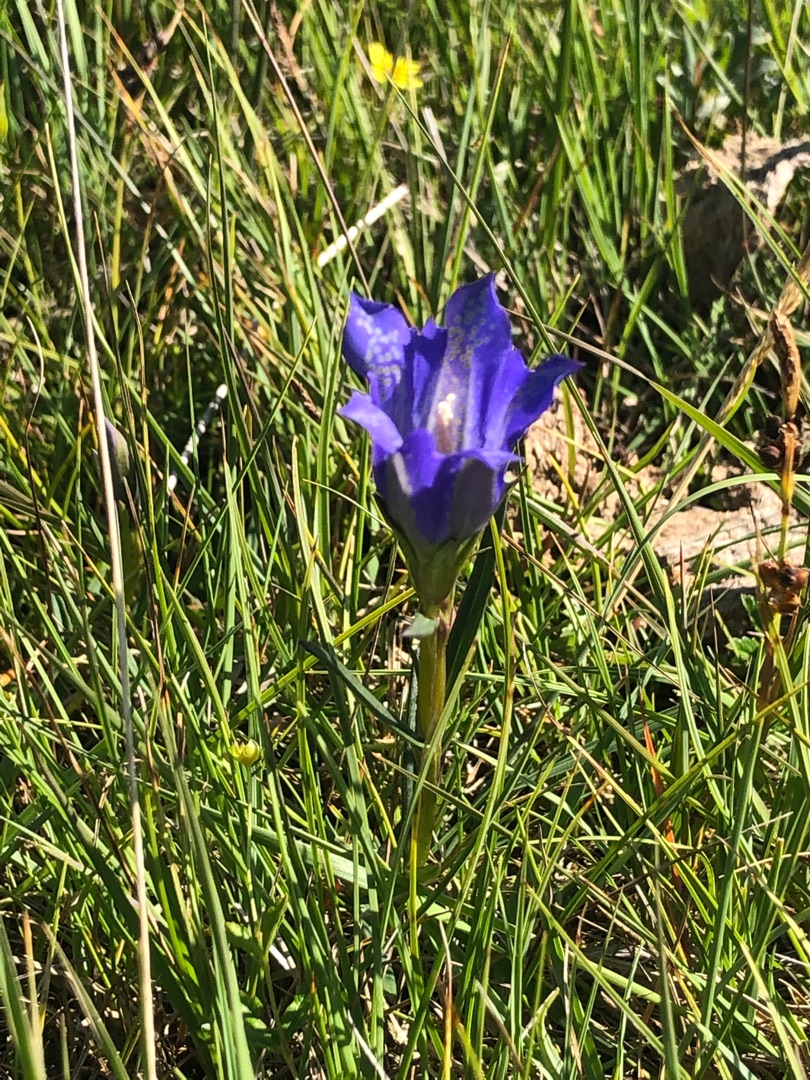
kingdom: Plantae
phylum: Tracheophyta
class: Magnoliopsida
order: Gentianales
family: Gentianaceae
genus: Gentiana
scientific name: Gentiana pneumonanthe
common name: Klokke-ensian
